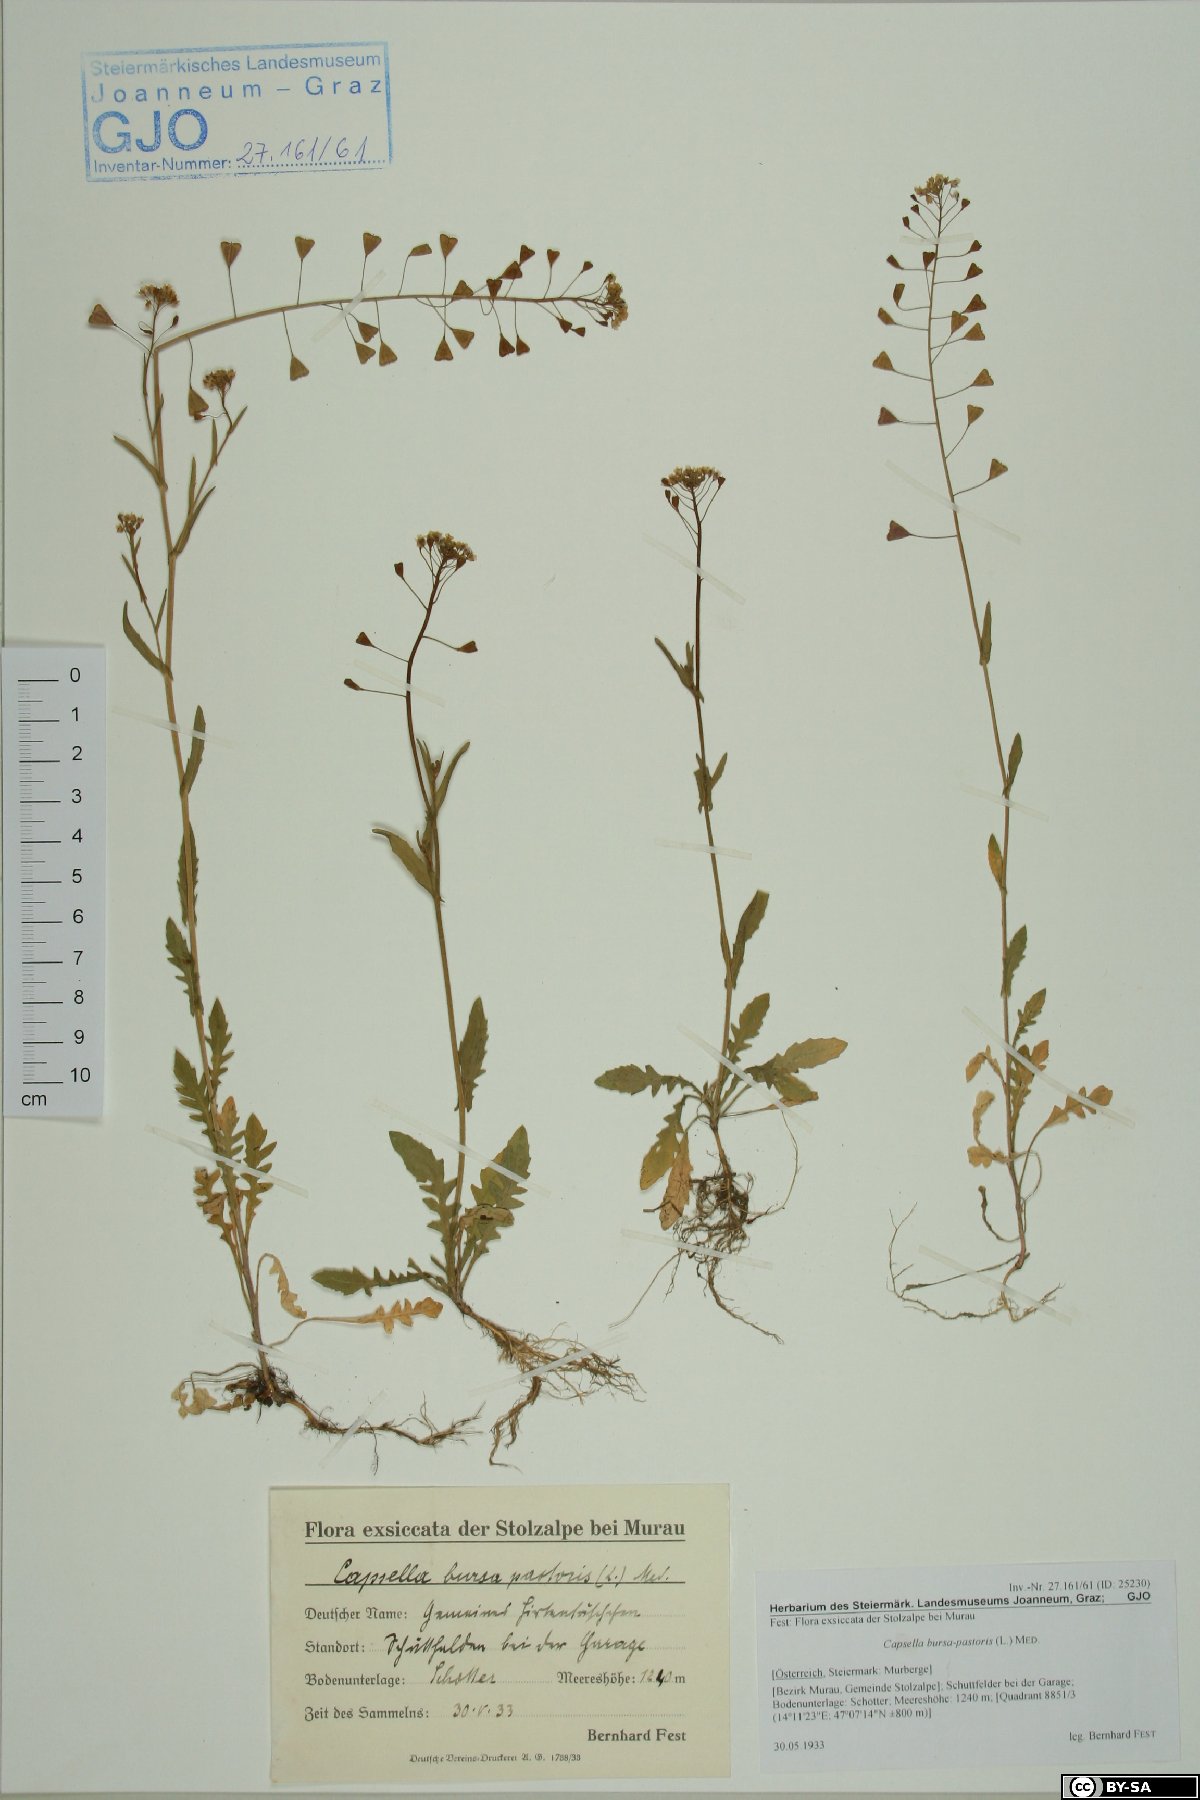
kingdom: Plantae
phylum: Tracheophyta
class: Magnoliopsida
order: Brassicales
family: Brassicaceae
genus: Capsella
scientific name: Capsella bursa-pastoris
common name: Shepherd's purse
